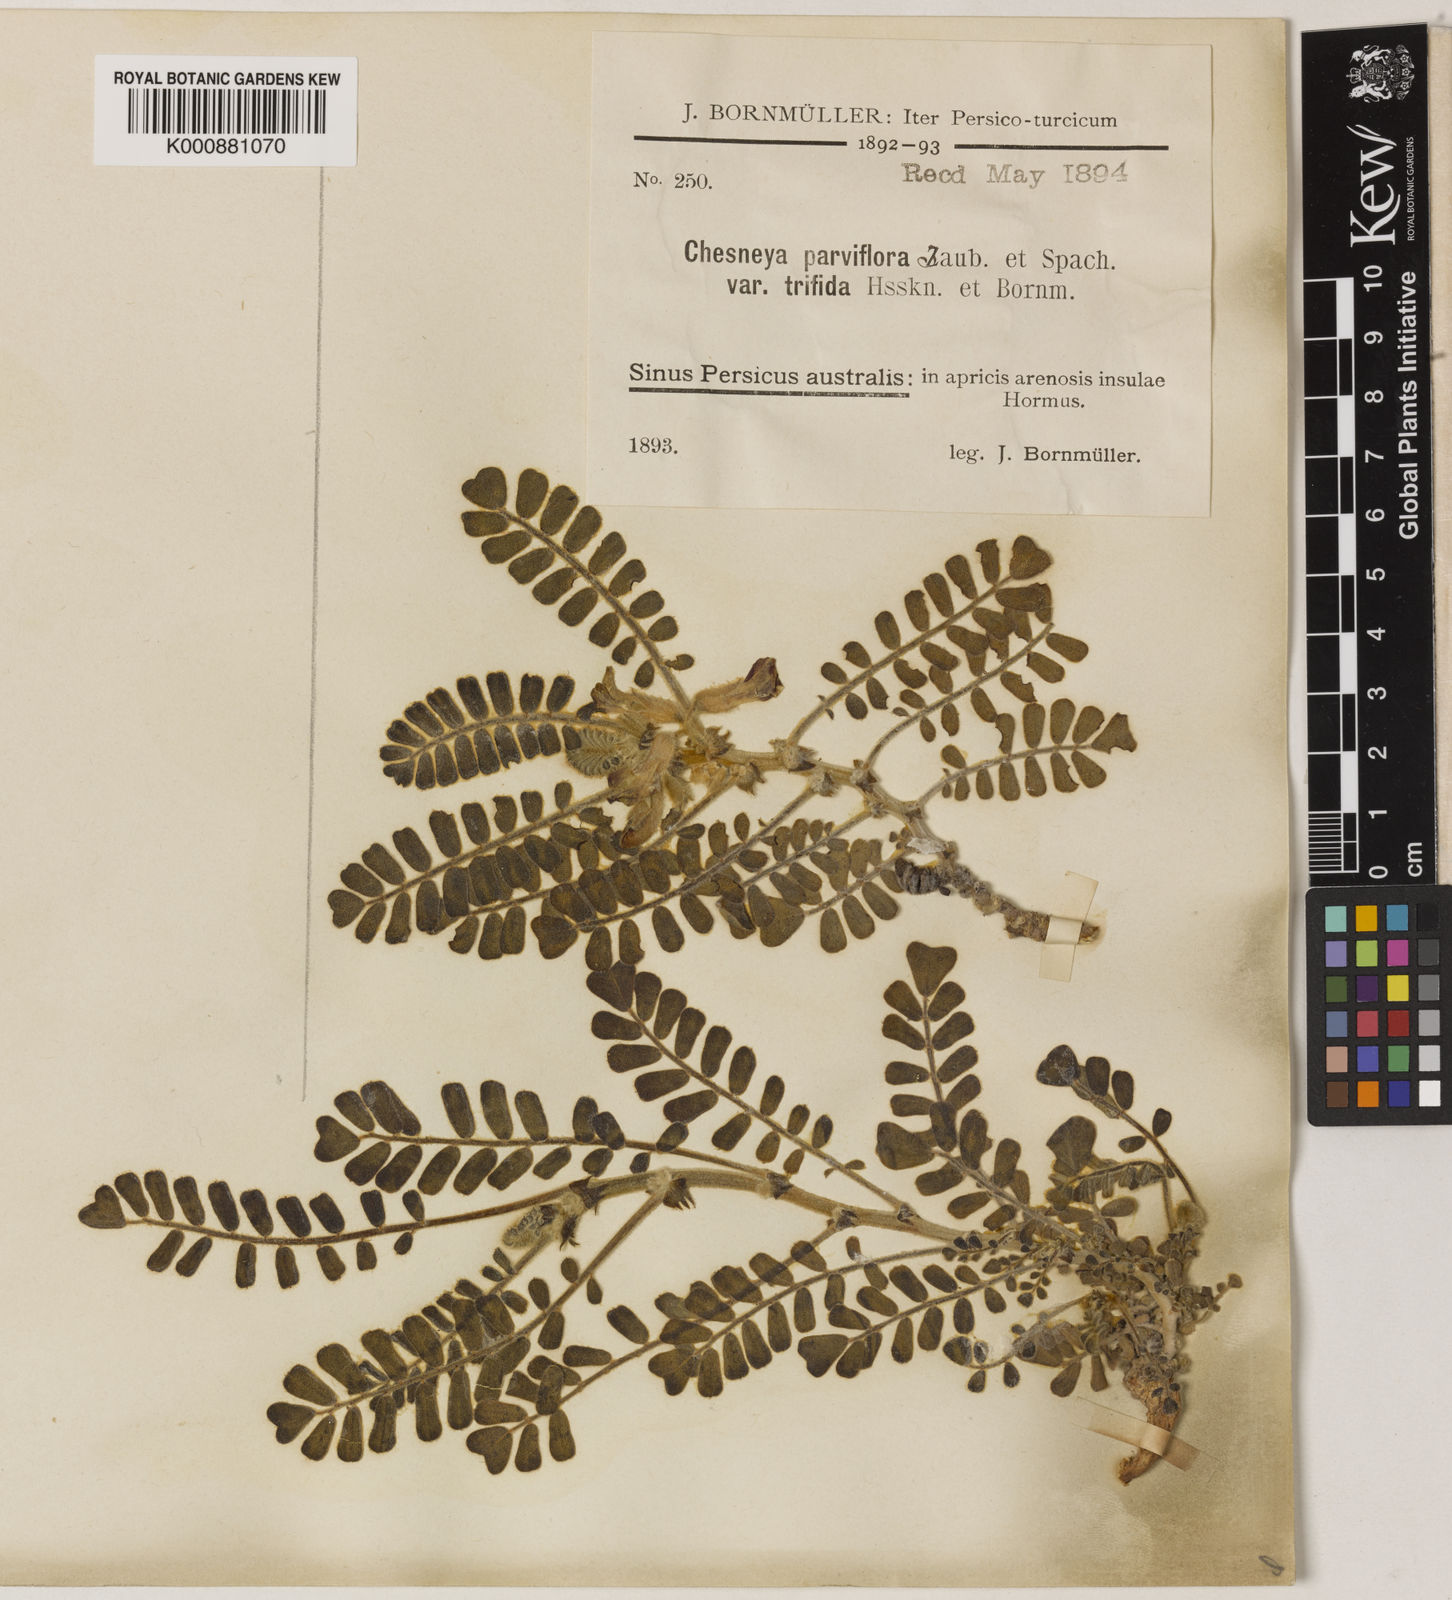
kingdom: Plantae
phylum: Tracheophyta
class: Magnoliopsida
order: Fabales
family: Fabaceae
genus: Chesneya
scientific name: Chesneya parviflora
